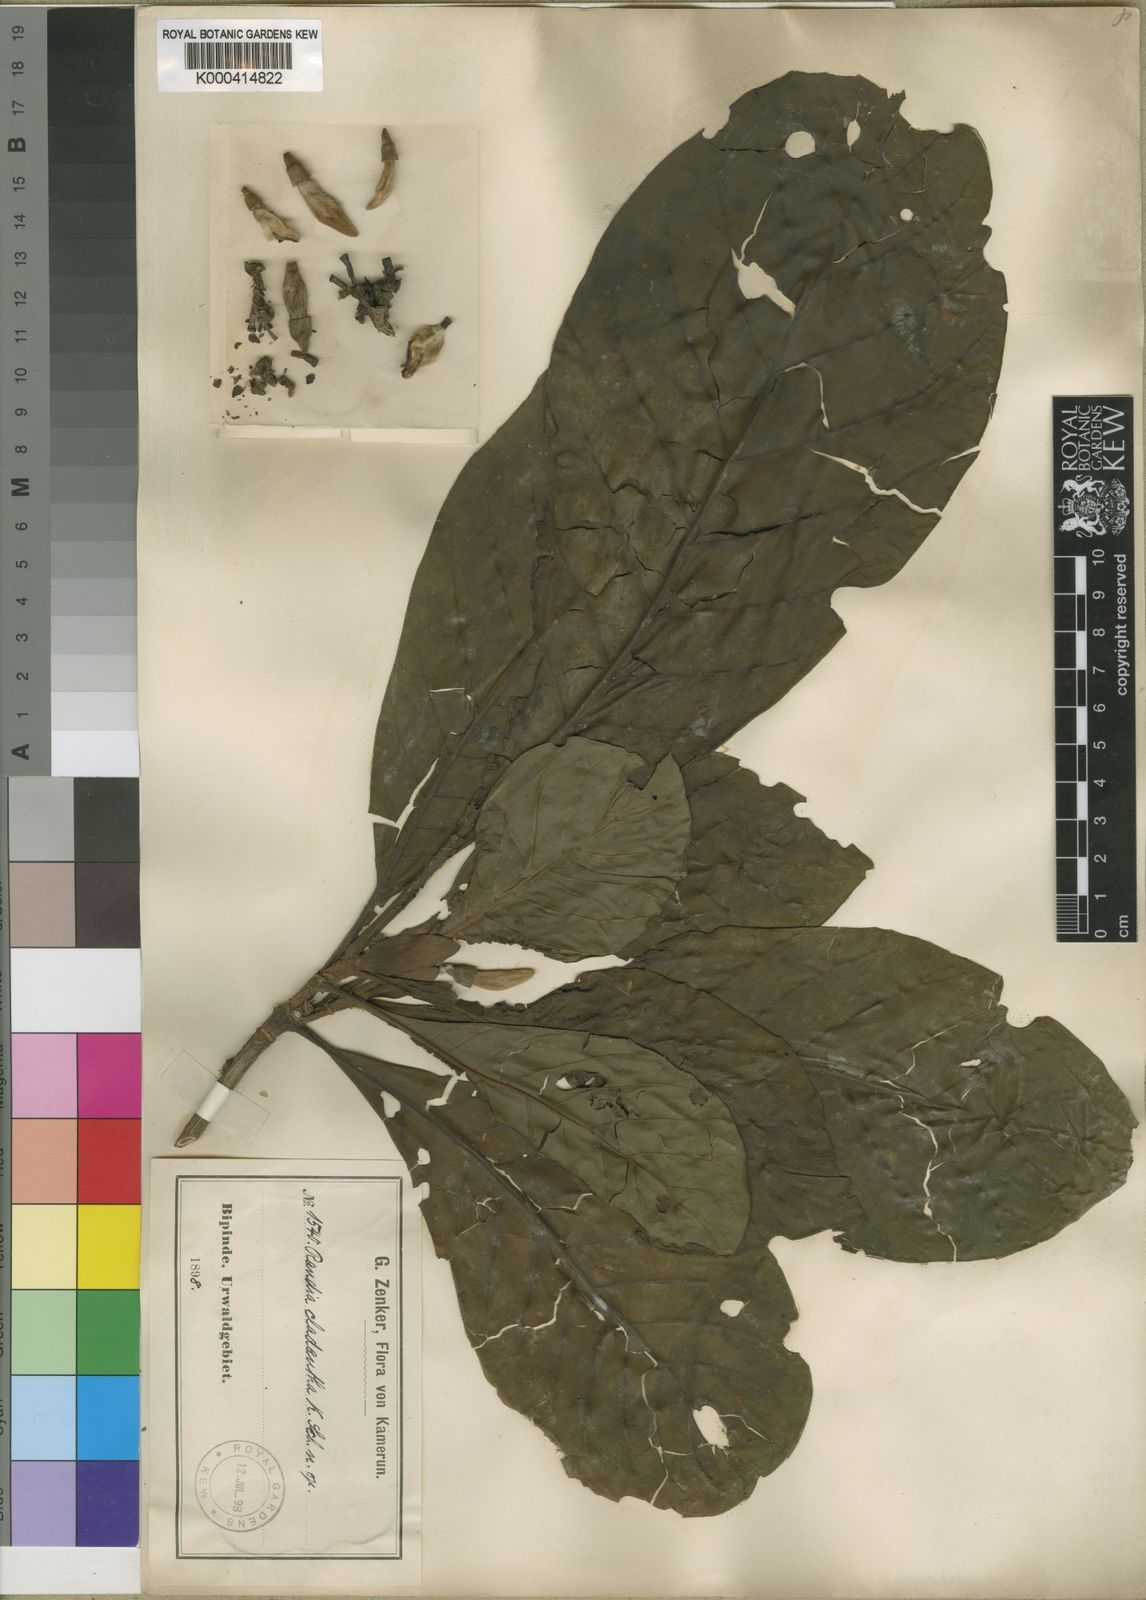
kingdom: Plantae
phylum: Tracheophyta
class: Magnoliopsida
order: Gentianales
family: Rubiaceae
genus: Aoranthe
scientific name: Aoranthe cladantha
